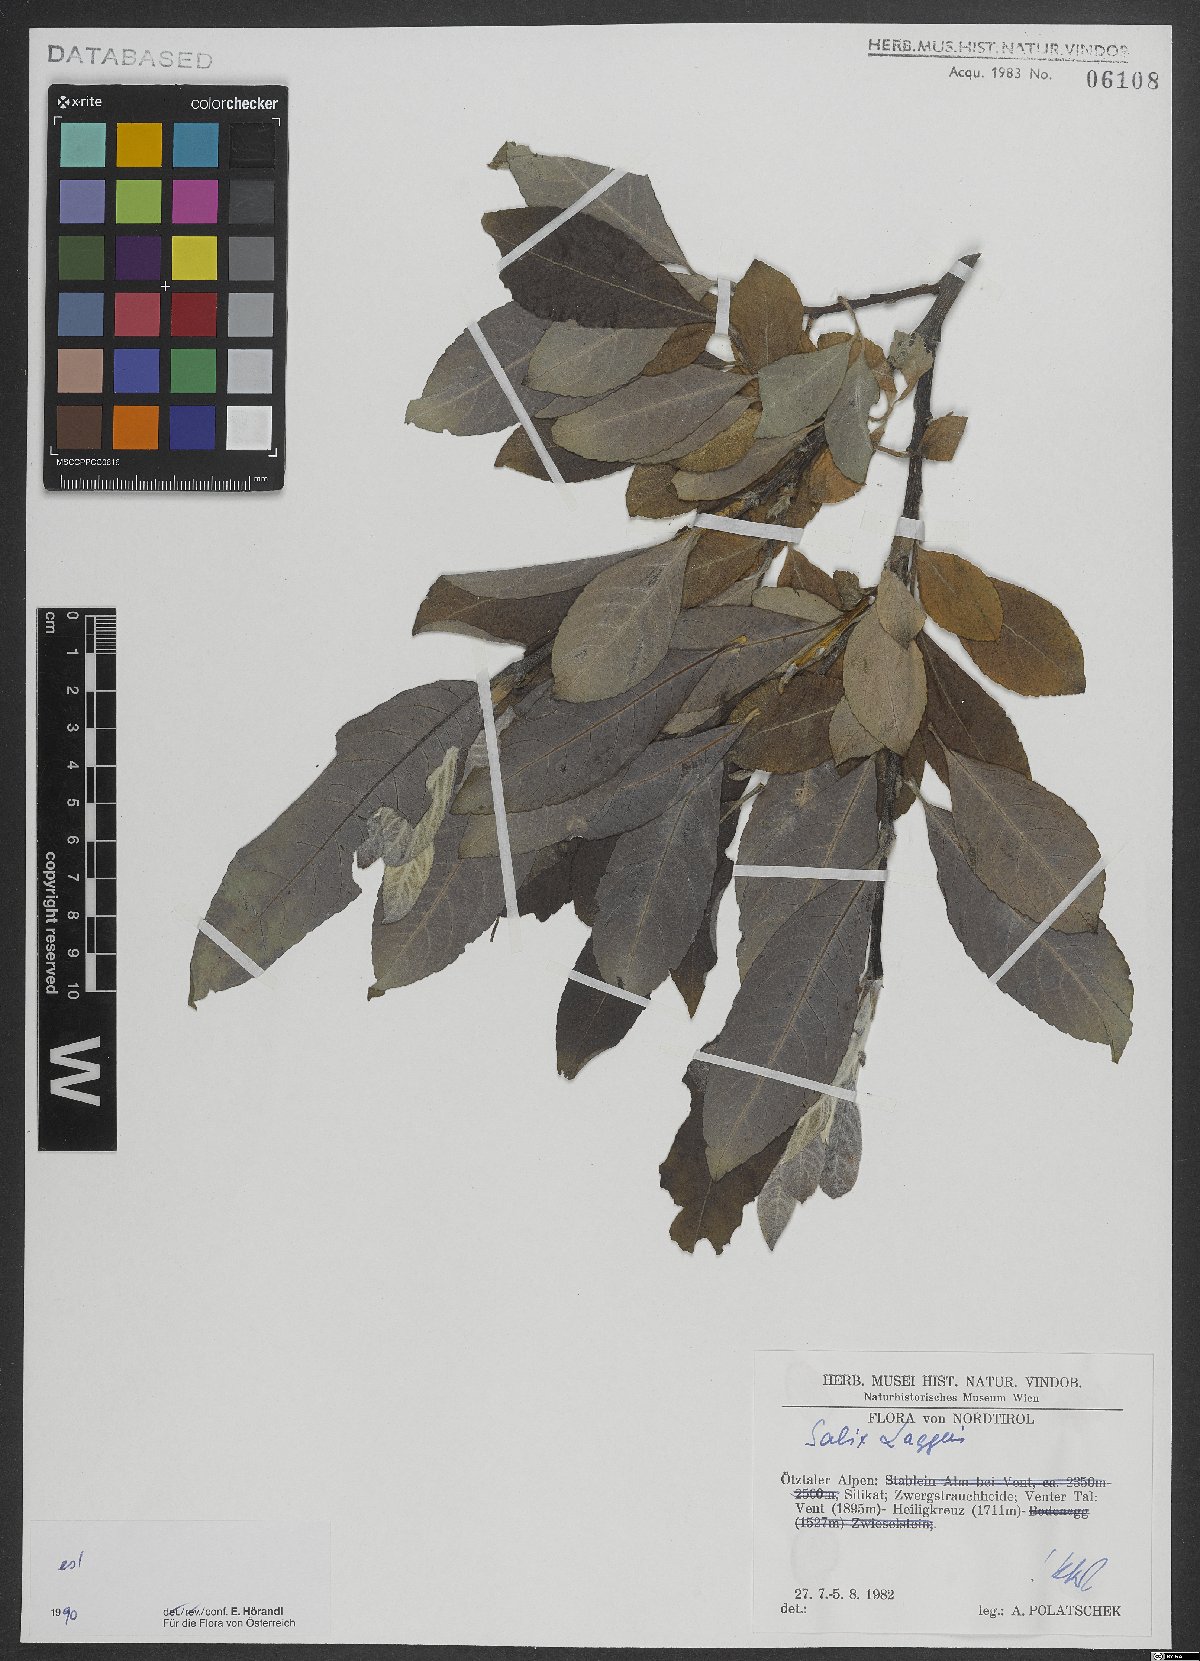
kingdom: Plantae
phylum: Tracheophyta
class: Magnoliopsida
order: Malpighiales
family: Salicaceae
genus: Salix
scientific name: Salix laggeri
